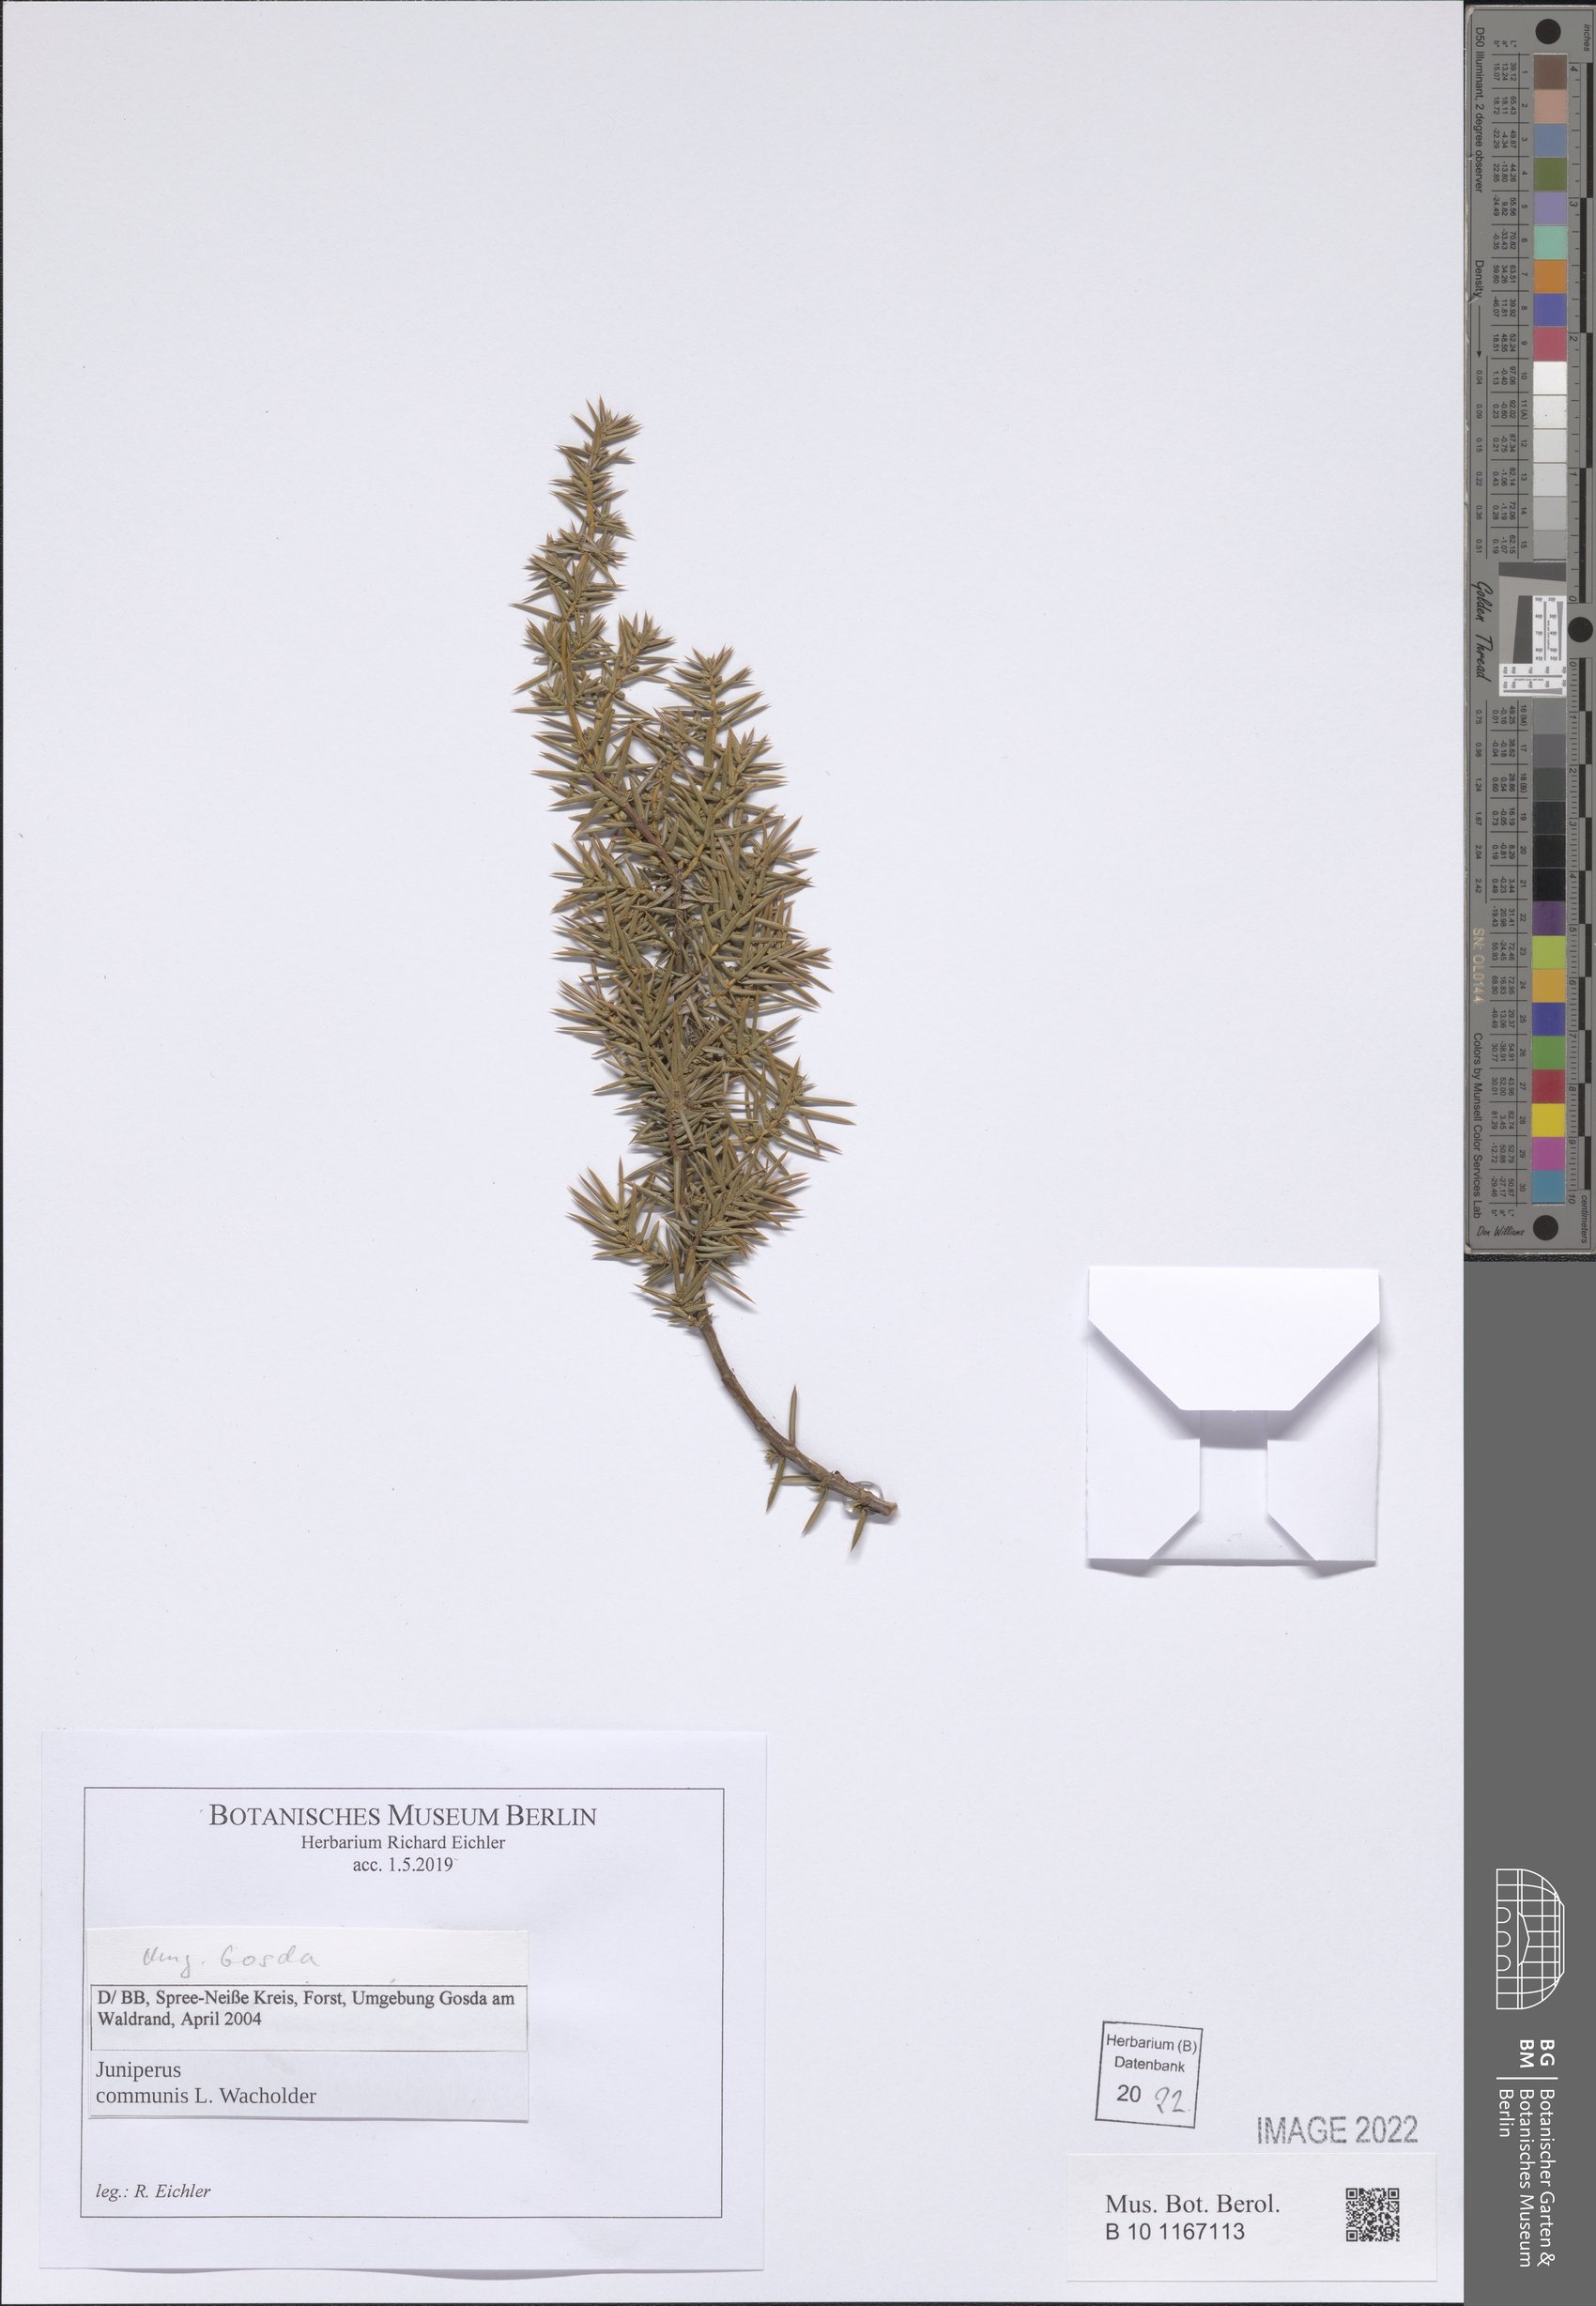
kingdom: Plantae
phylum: Tracheophyta
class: Pinopsida
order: Pinales
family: Cupressaceae
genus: Juniperus
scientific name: Juniperus communis
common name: Common juniper
